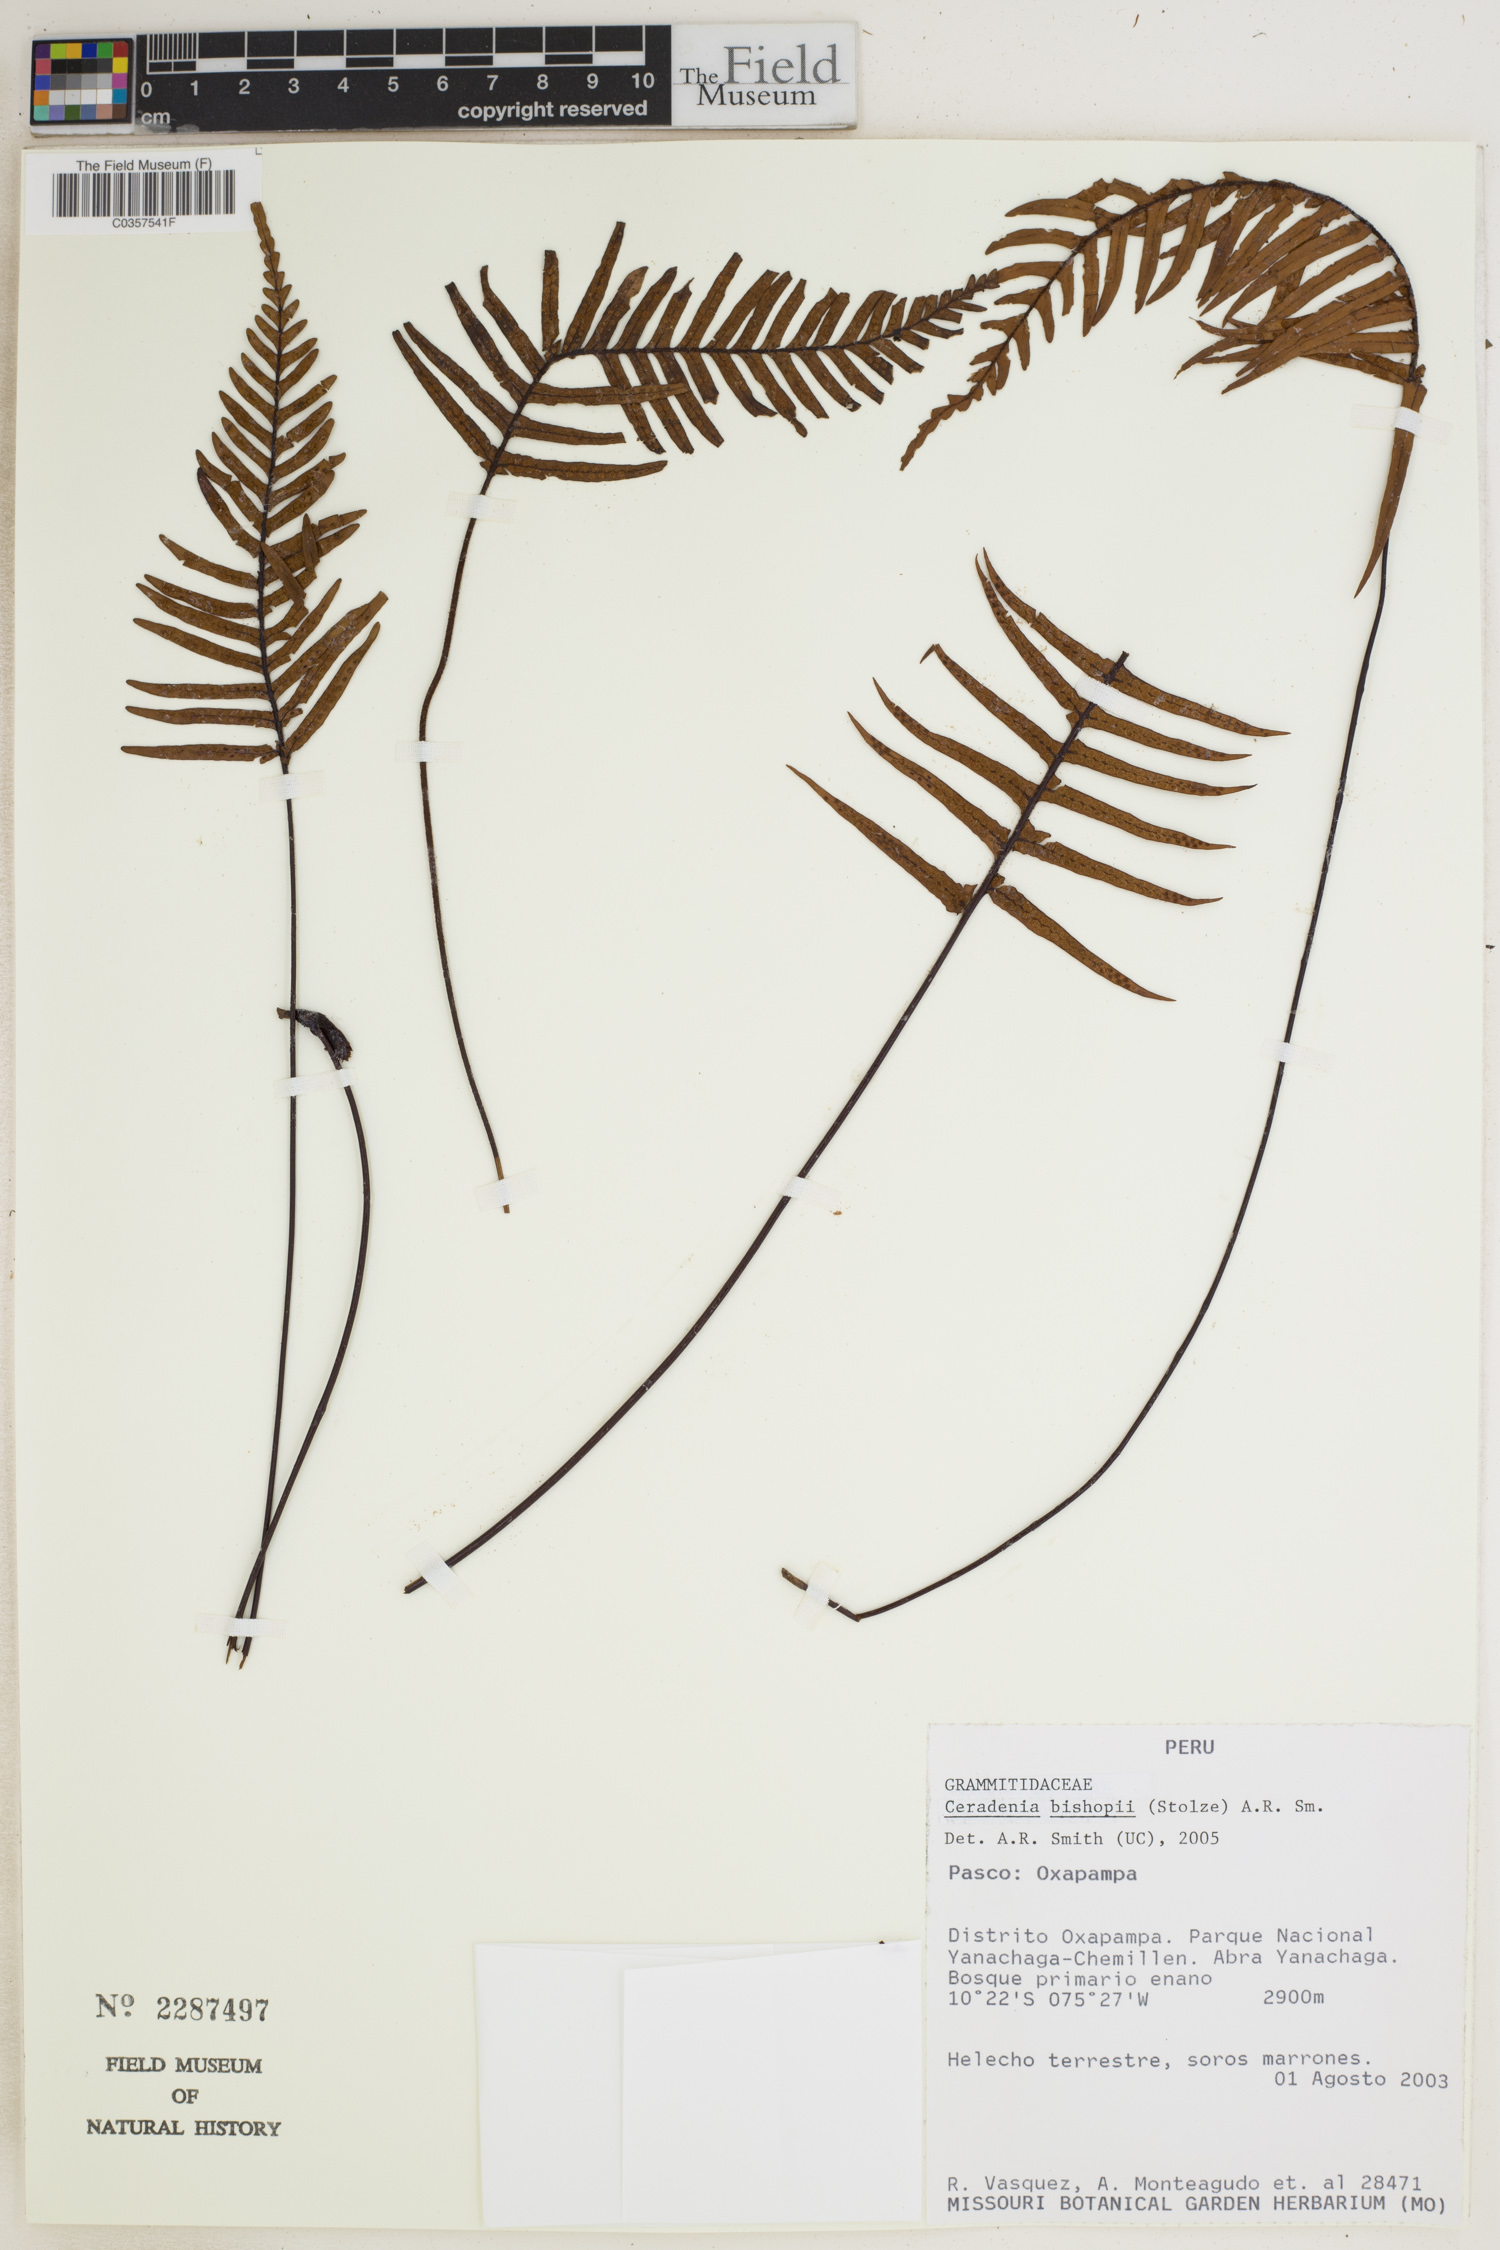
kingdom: Plantae
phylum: Tracheophyta
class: Polypodiopsida
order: Polypodiales
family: Polypodiaceae
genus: Ceradenia
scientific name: Ceradenia bishopii
